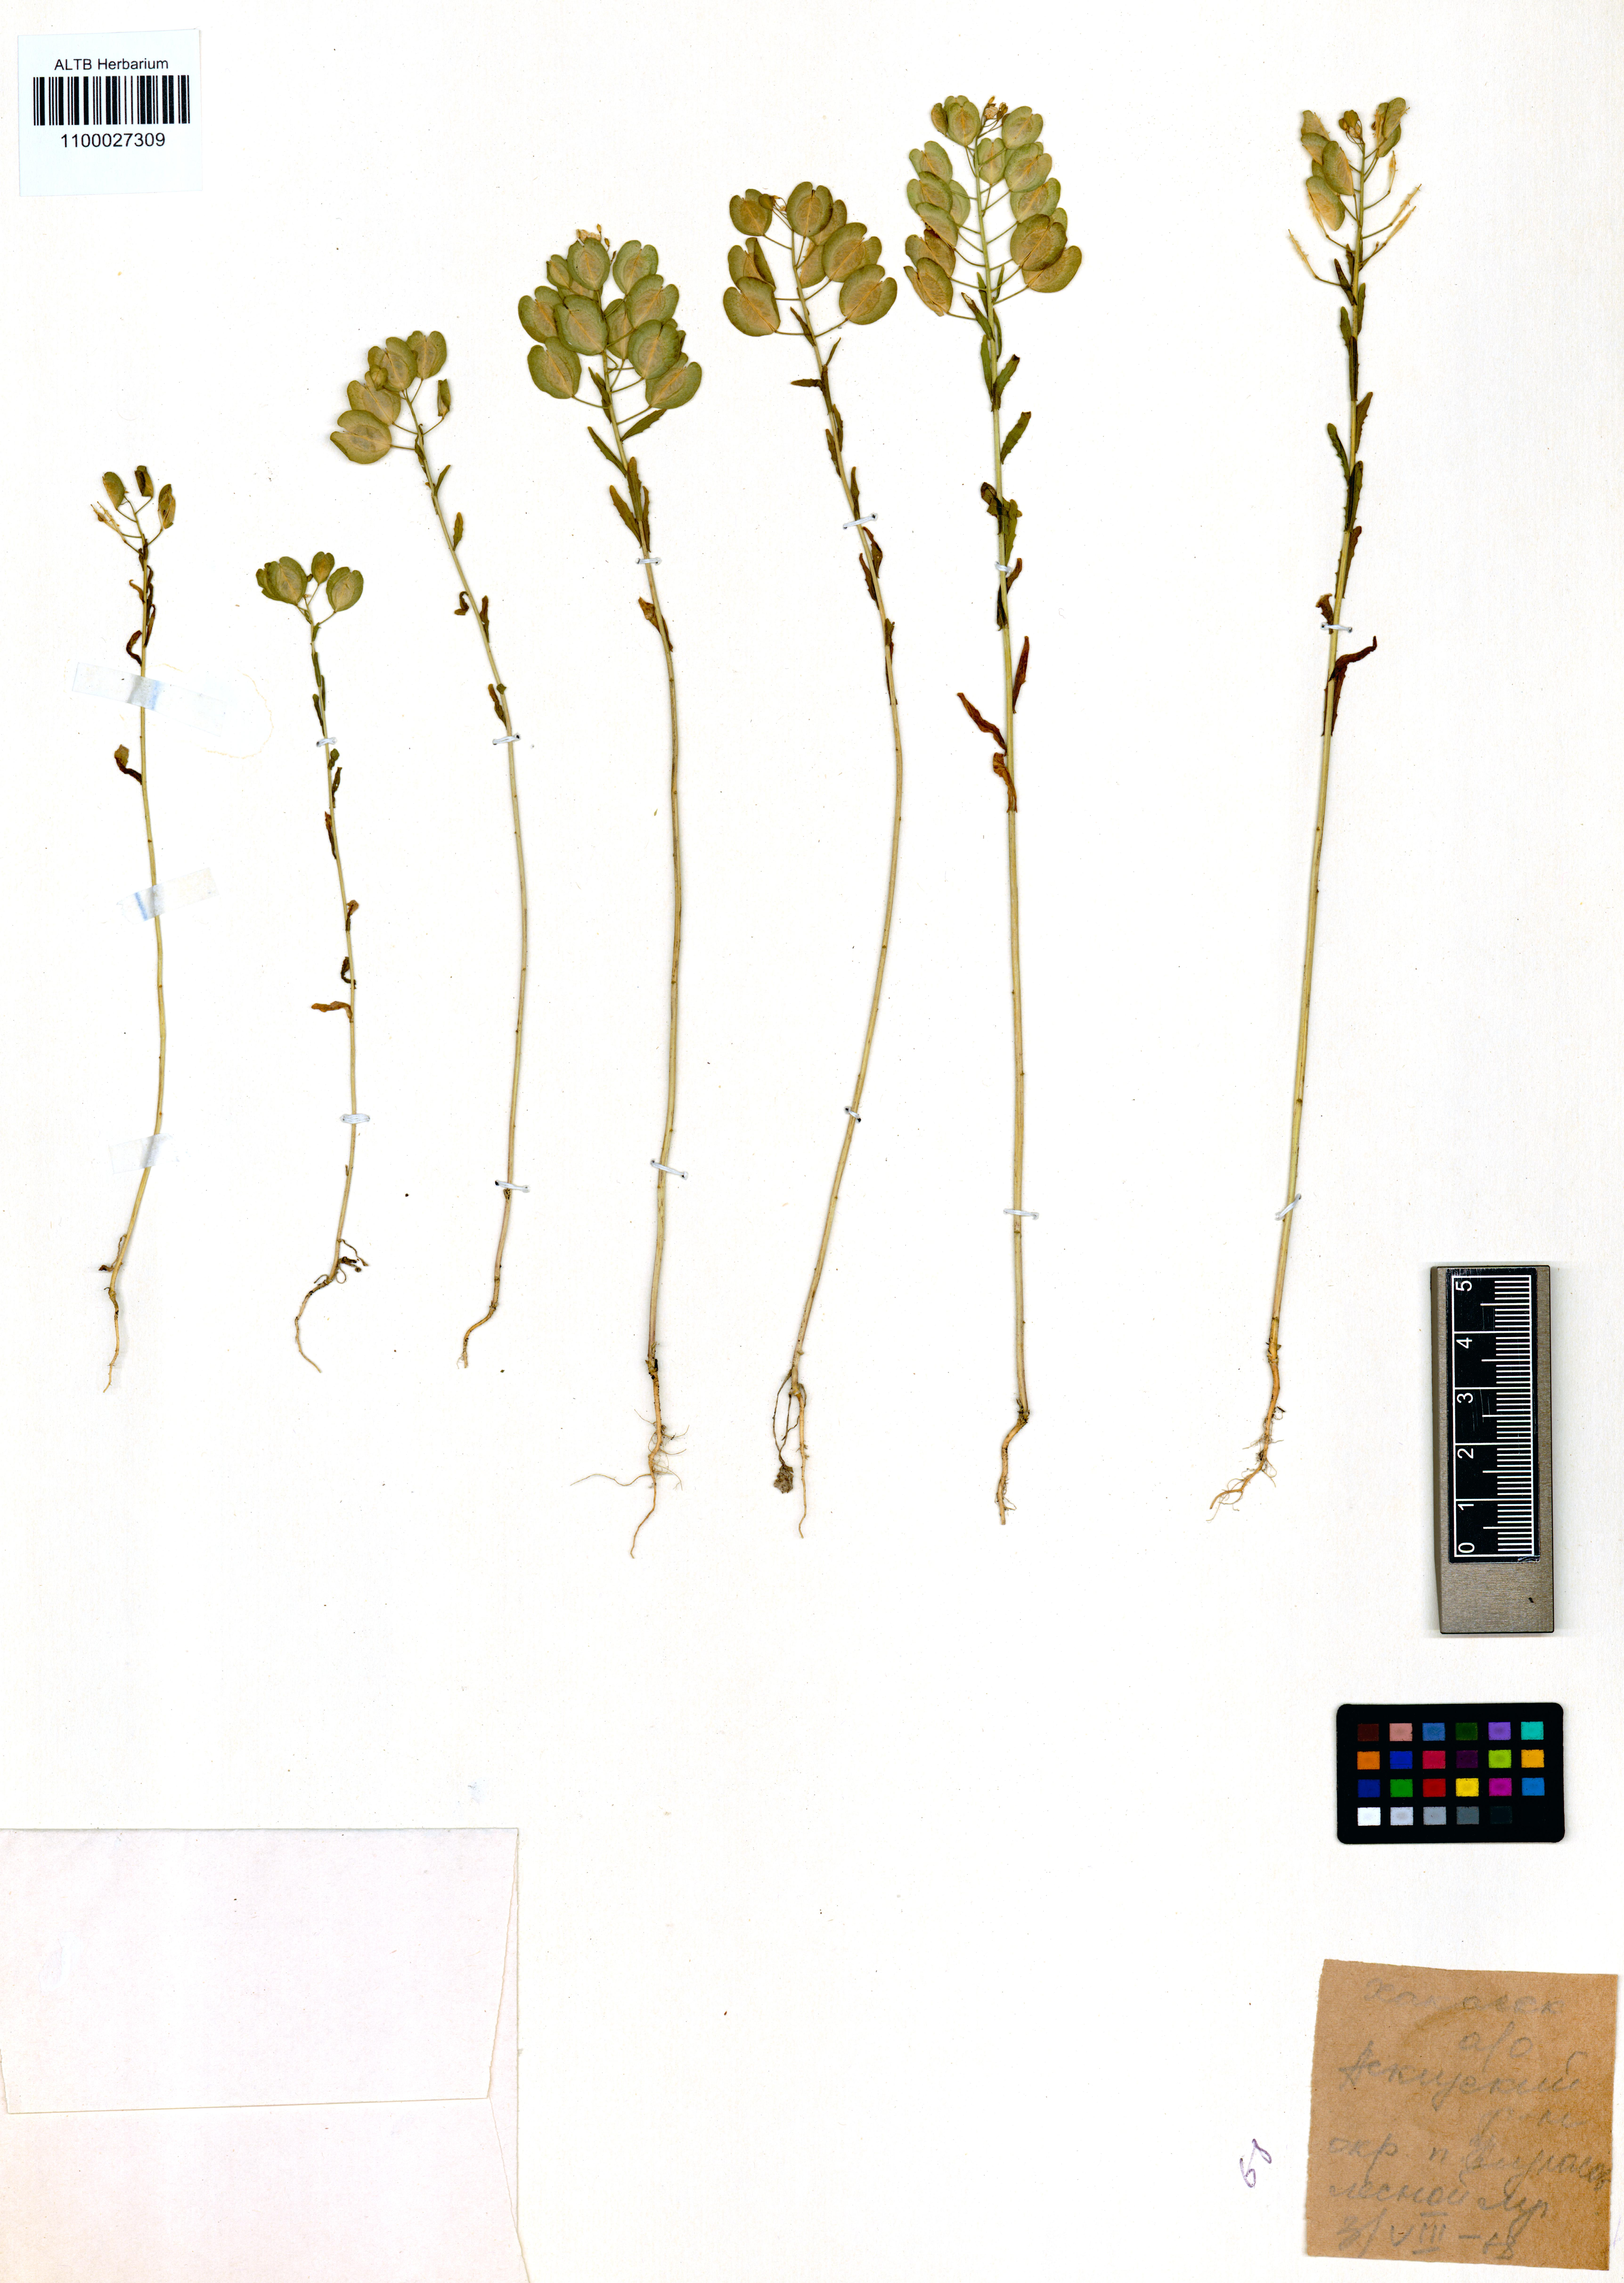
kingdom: Plantae
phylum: Tracheophyta
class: Magnoliopsida
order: Brassicales
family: Brassicaceae
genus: Thlaspi
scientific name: Thlaspi arvense
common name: Field pennycress
